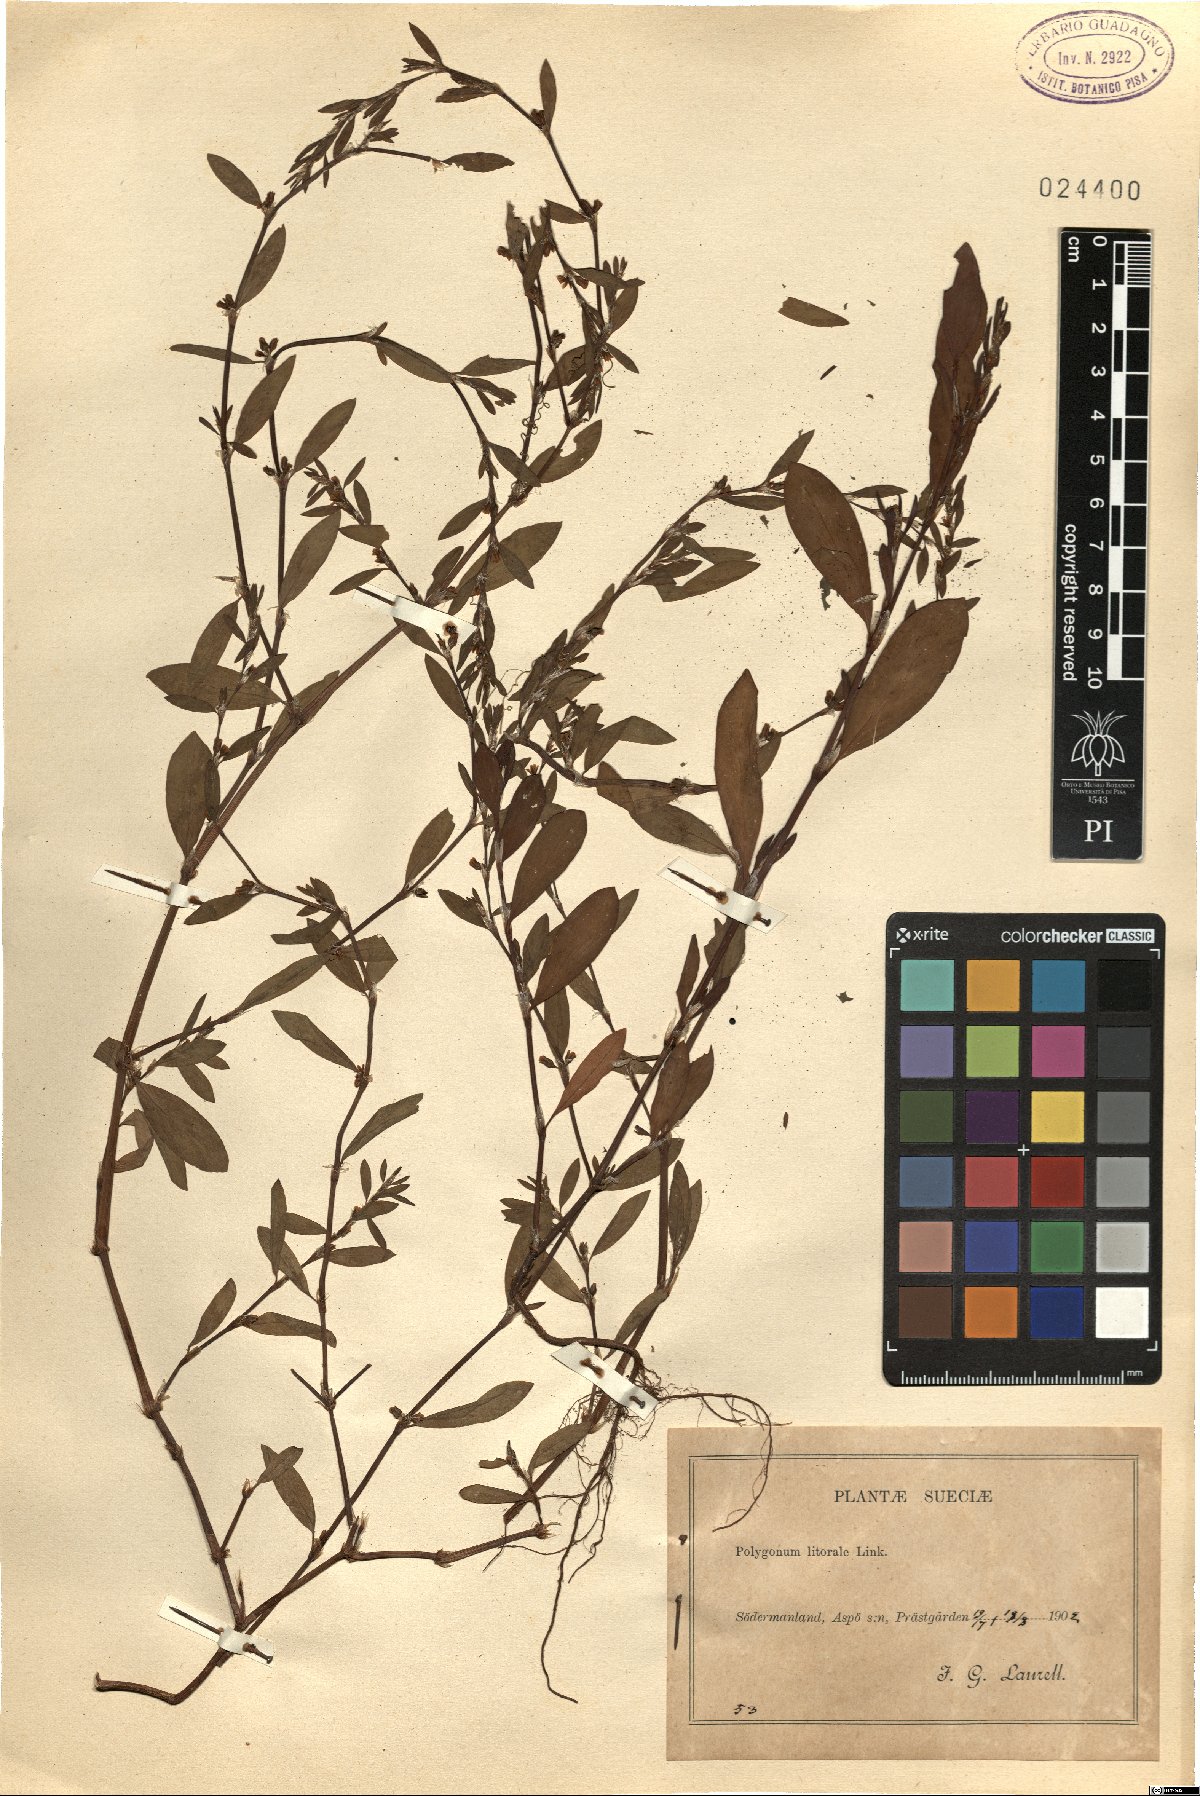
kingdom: Plantae
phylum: Tracheophyta
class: Magnoliopsida
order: Caryophyllales
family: Polygonaceae
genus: Polygonum
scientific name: Polygonum aviculare
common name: Prostrate knotweed
